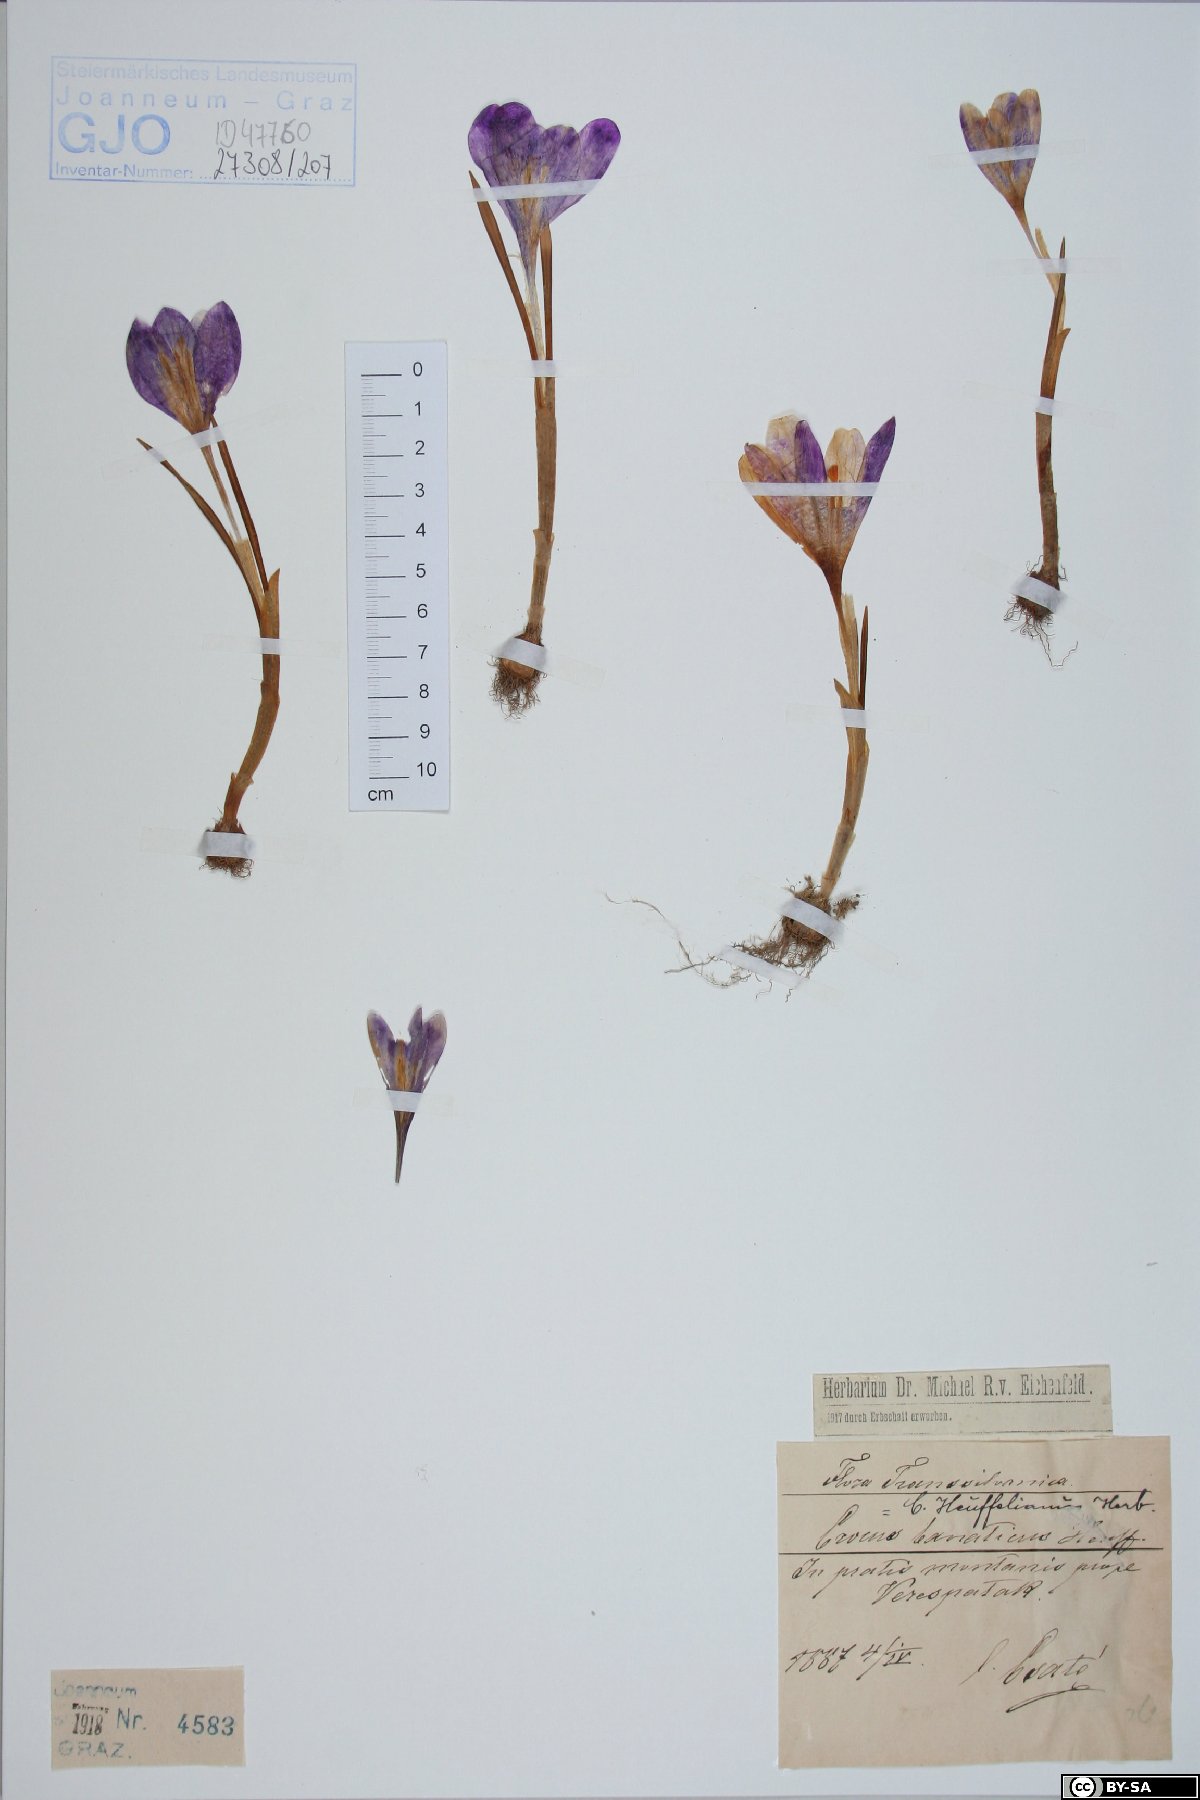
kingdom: Plantae
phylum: Tracheophyta
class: Liliopsida
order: Asparagales
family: Iridaceae
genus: Crocus
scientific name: Crocus heuffelianus
